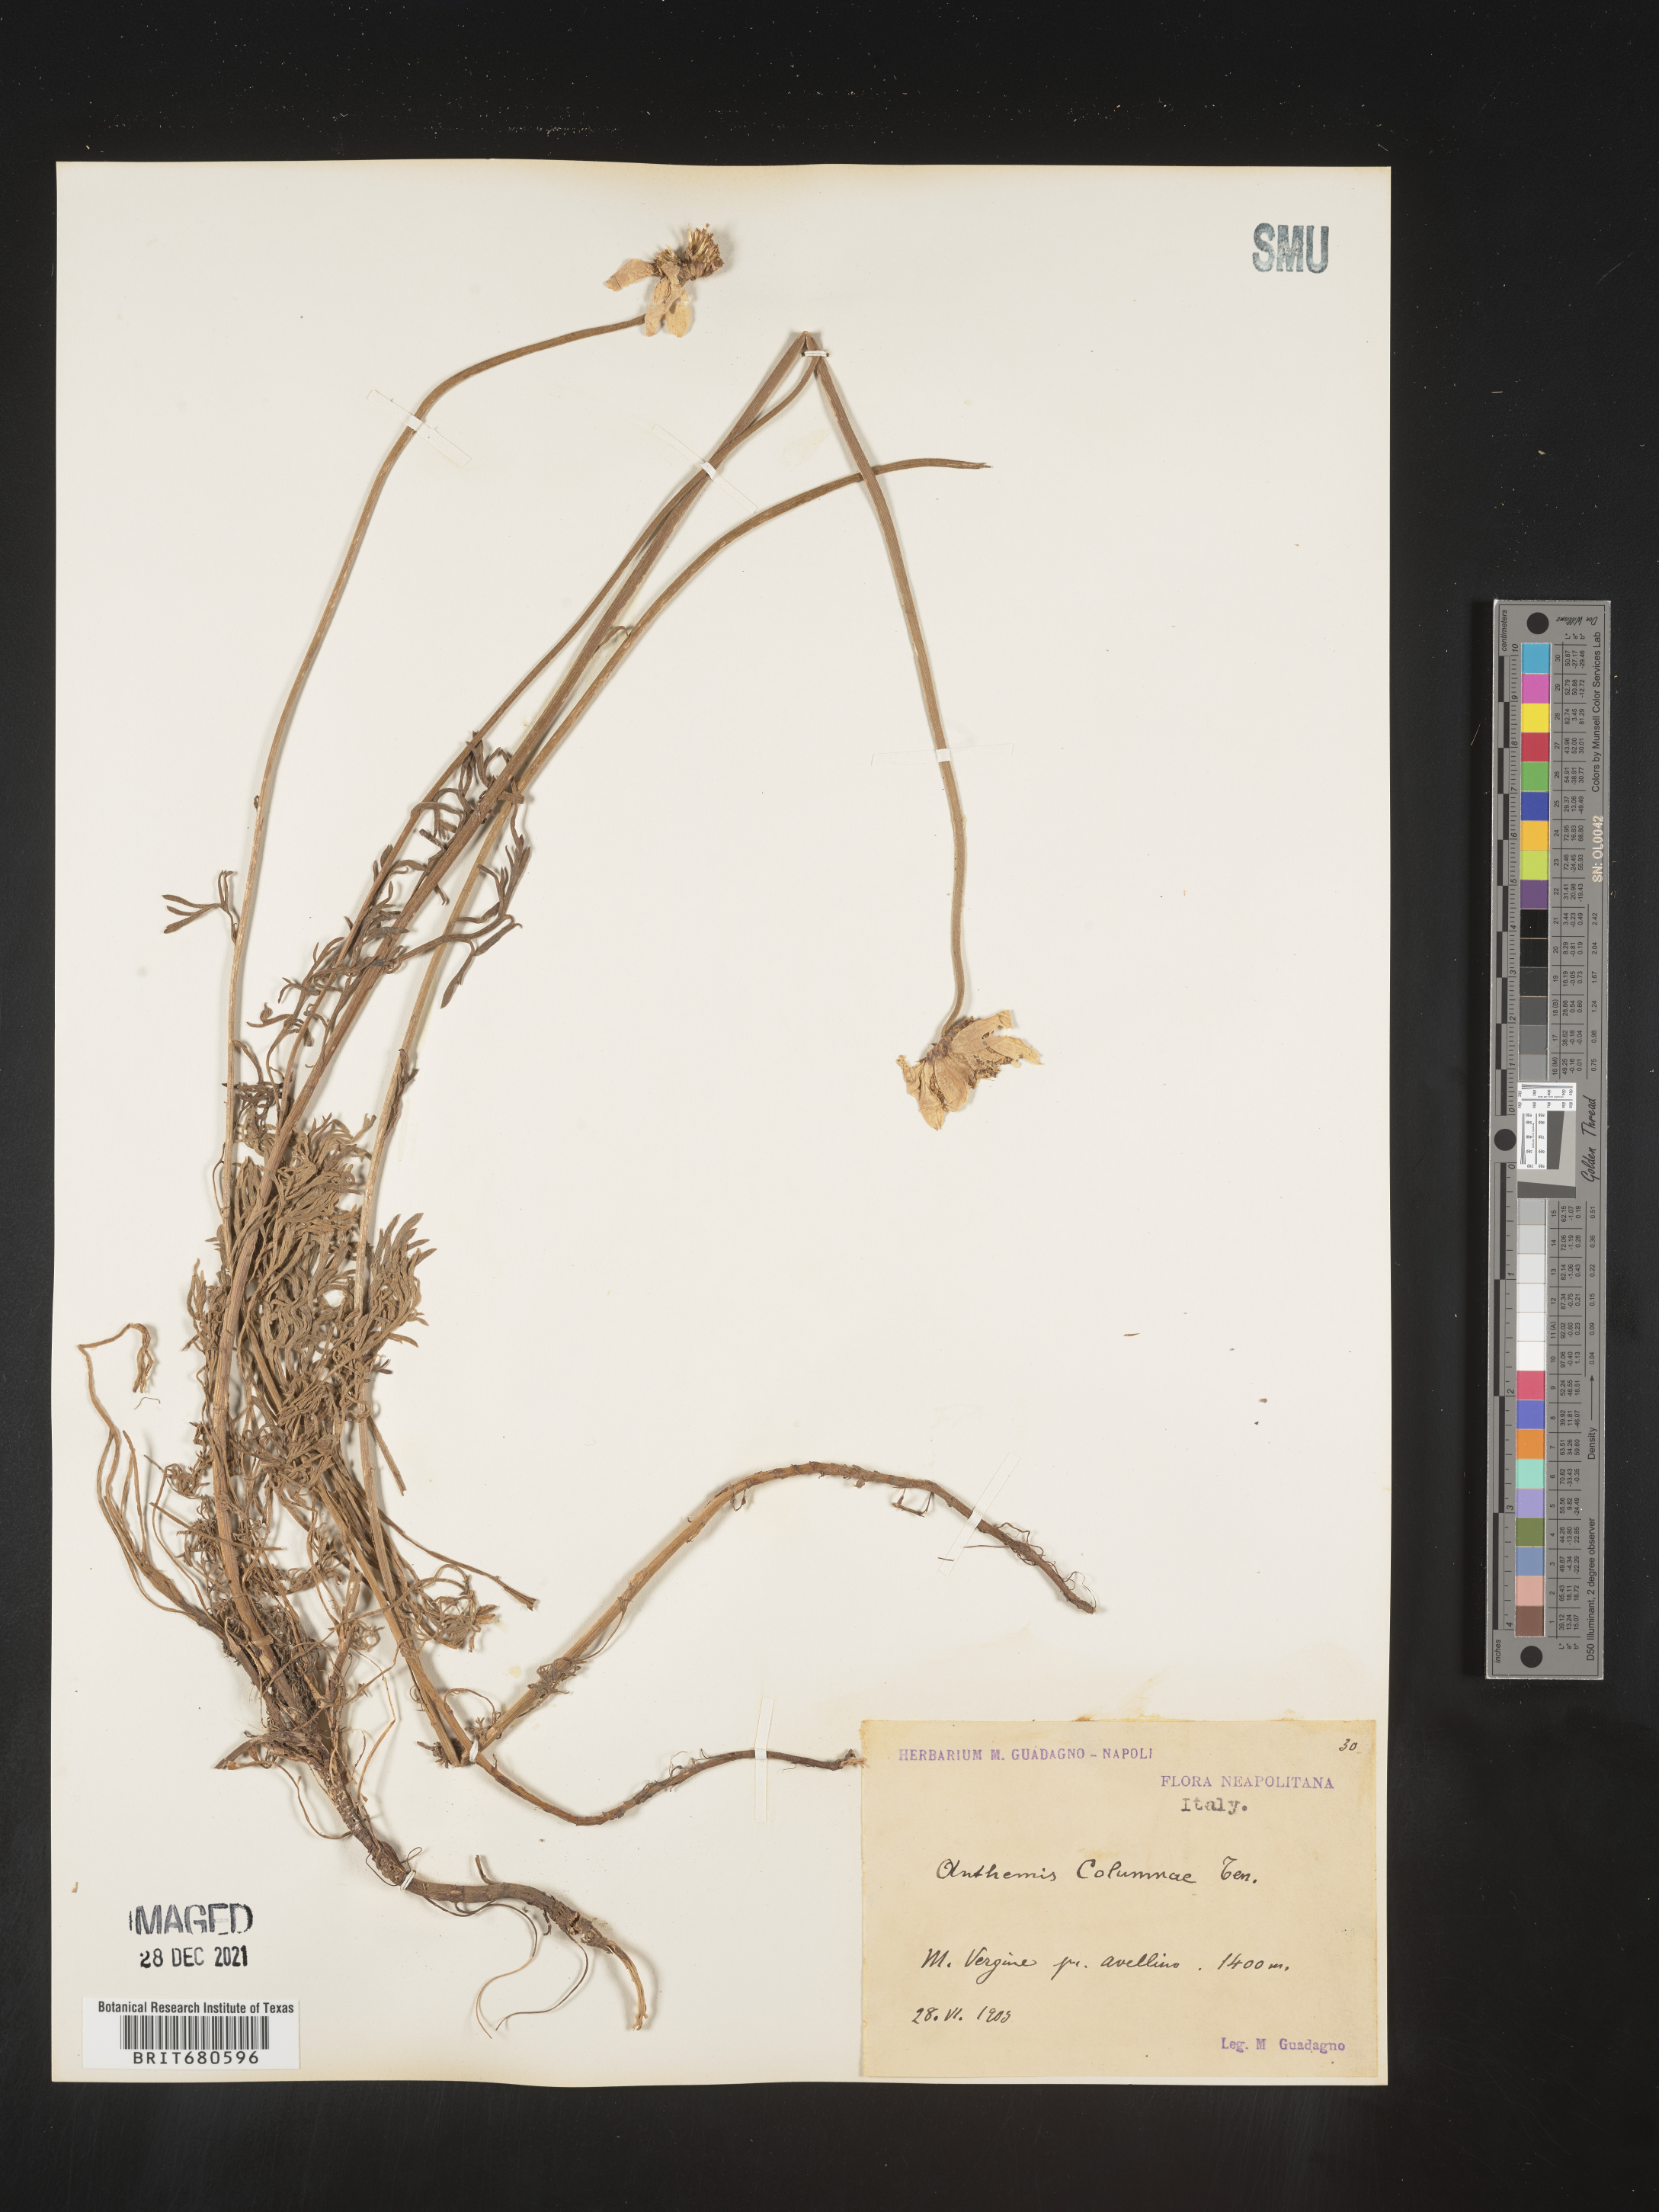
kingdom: Plantae
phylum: Tracheophyta
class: Magnoliopsida
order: Asterales
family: Asteraceae
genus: Anthemis
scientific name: Anthemis
